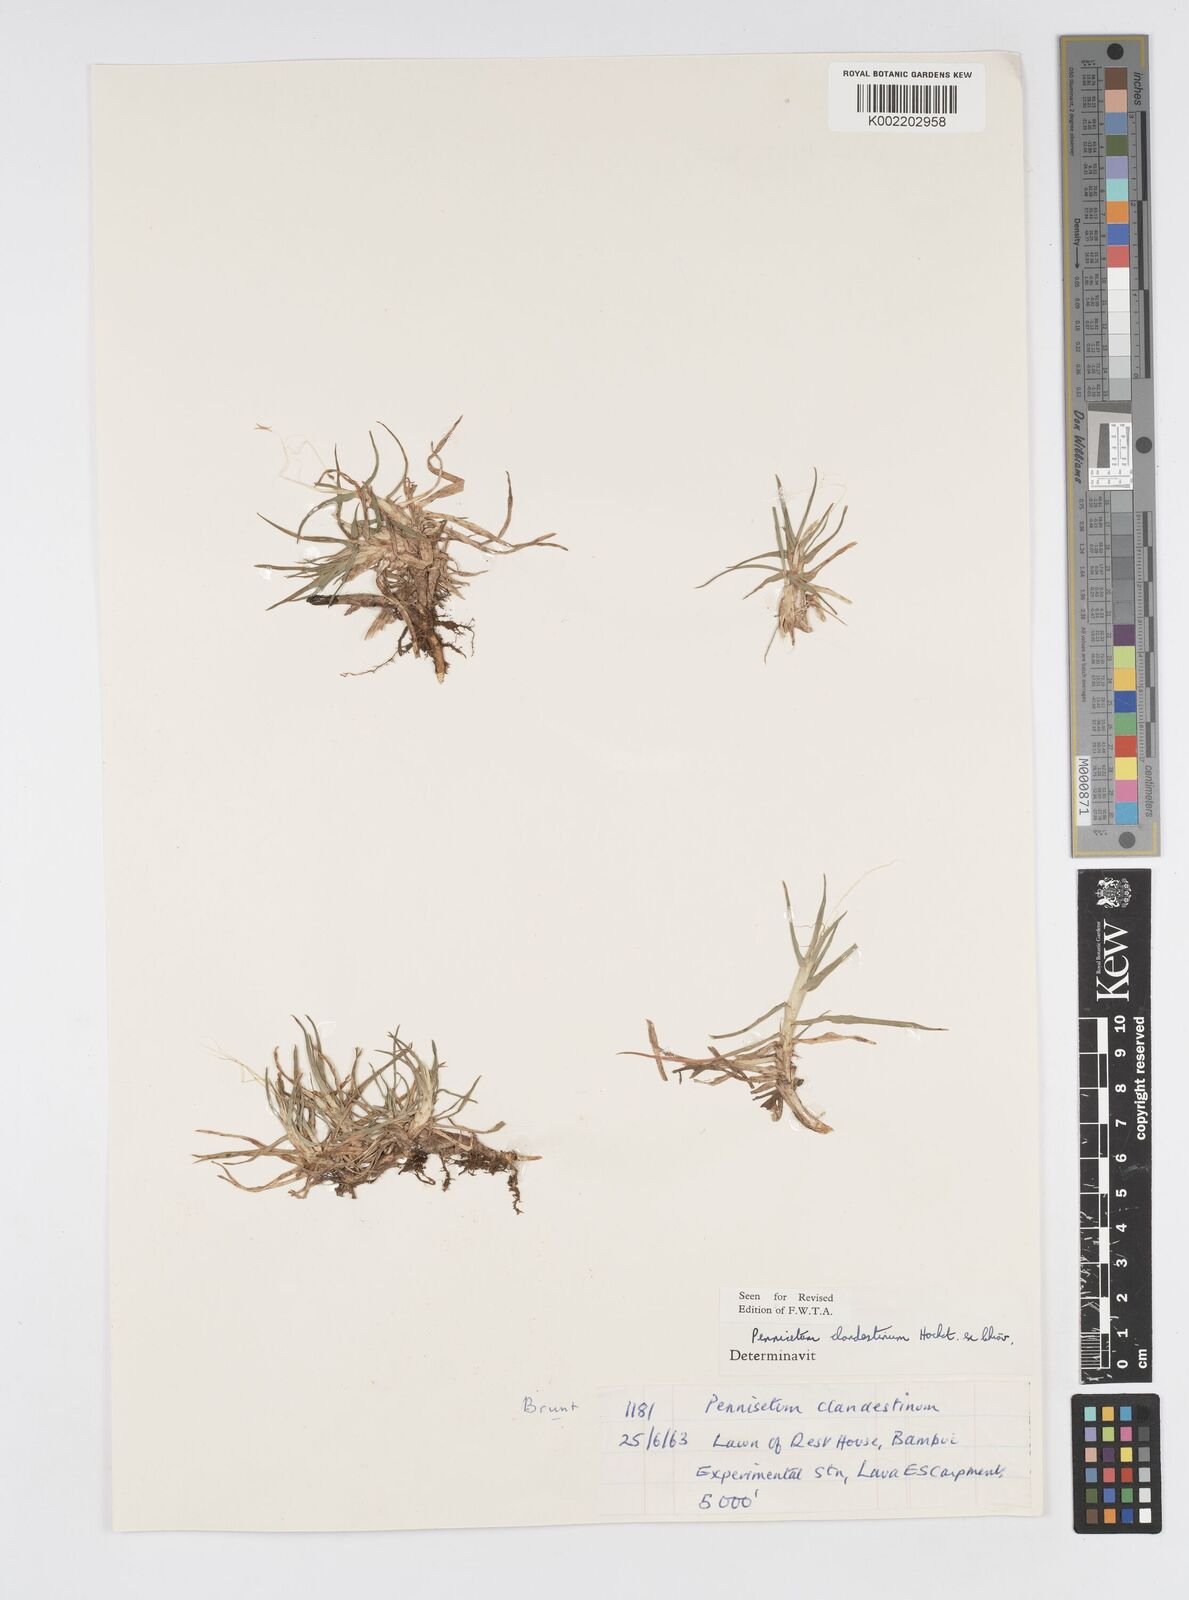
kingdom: Plantae
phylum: Tracheophyta
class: Liliopsida
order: Poales
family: Poaceae
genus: Cenchrus
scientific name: Cenchrus clandestinus
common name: Kikuyugrass
